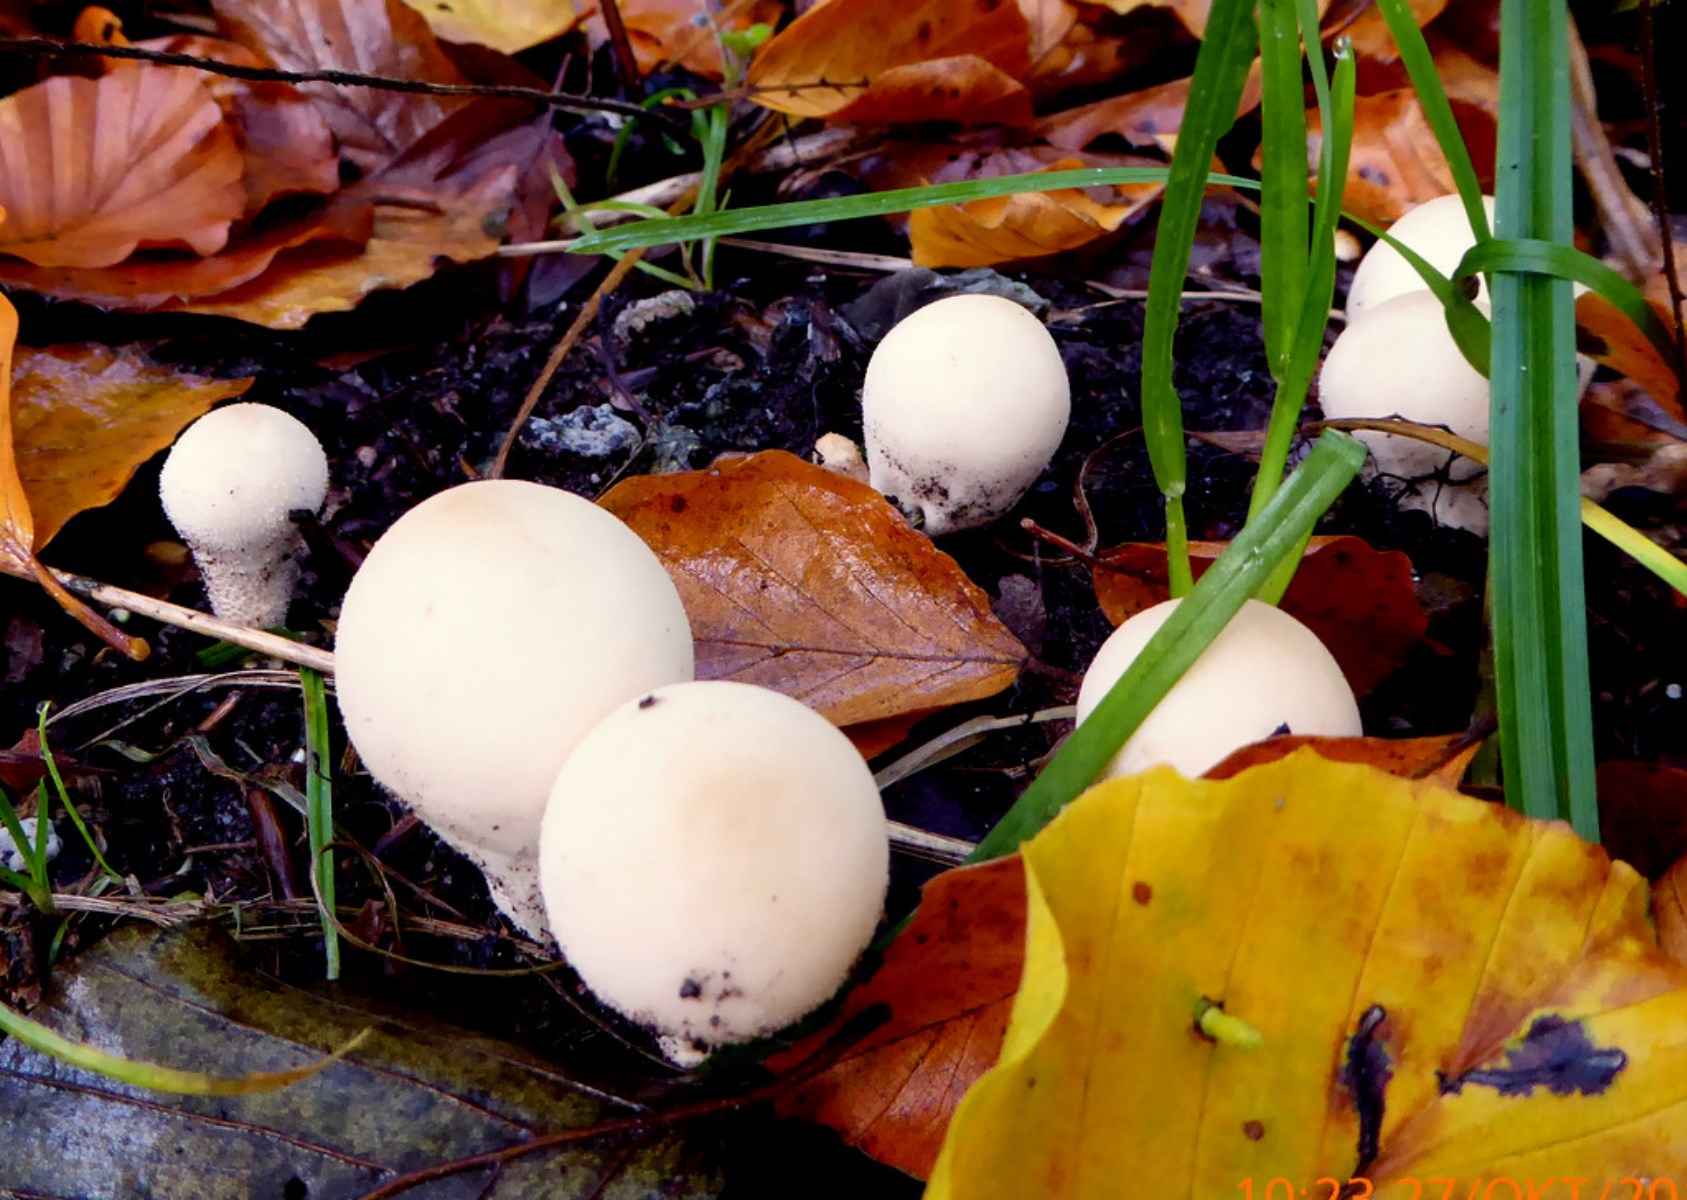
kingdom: Fungi
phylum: Basidiomycota
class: Agaricomycetes
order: Agaricales
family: Lycoperdaceae
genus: Apioperdon
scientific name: Apioperdon pyriforme
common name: pære-støvbold
